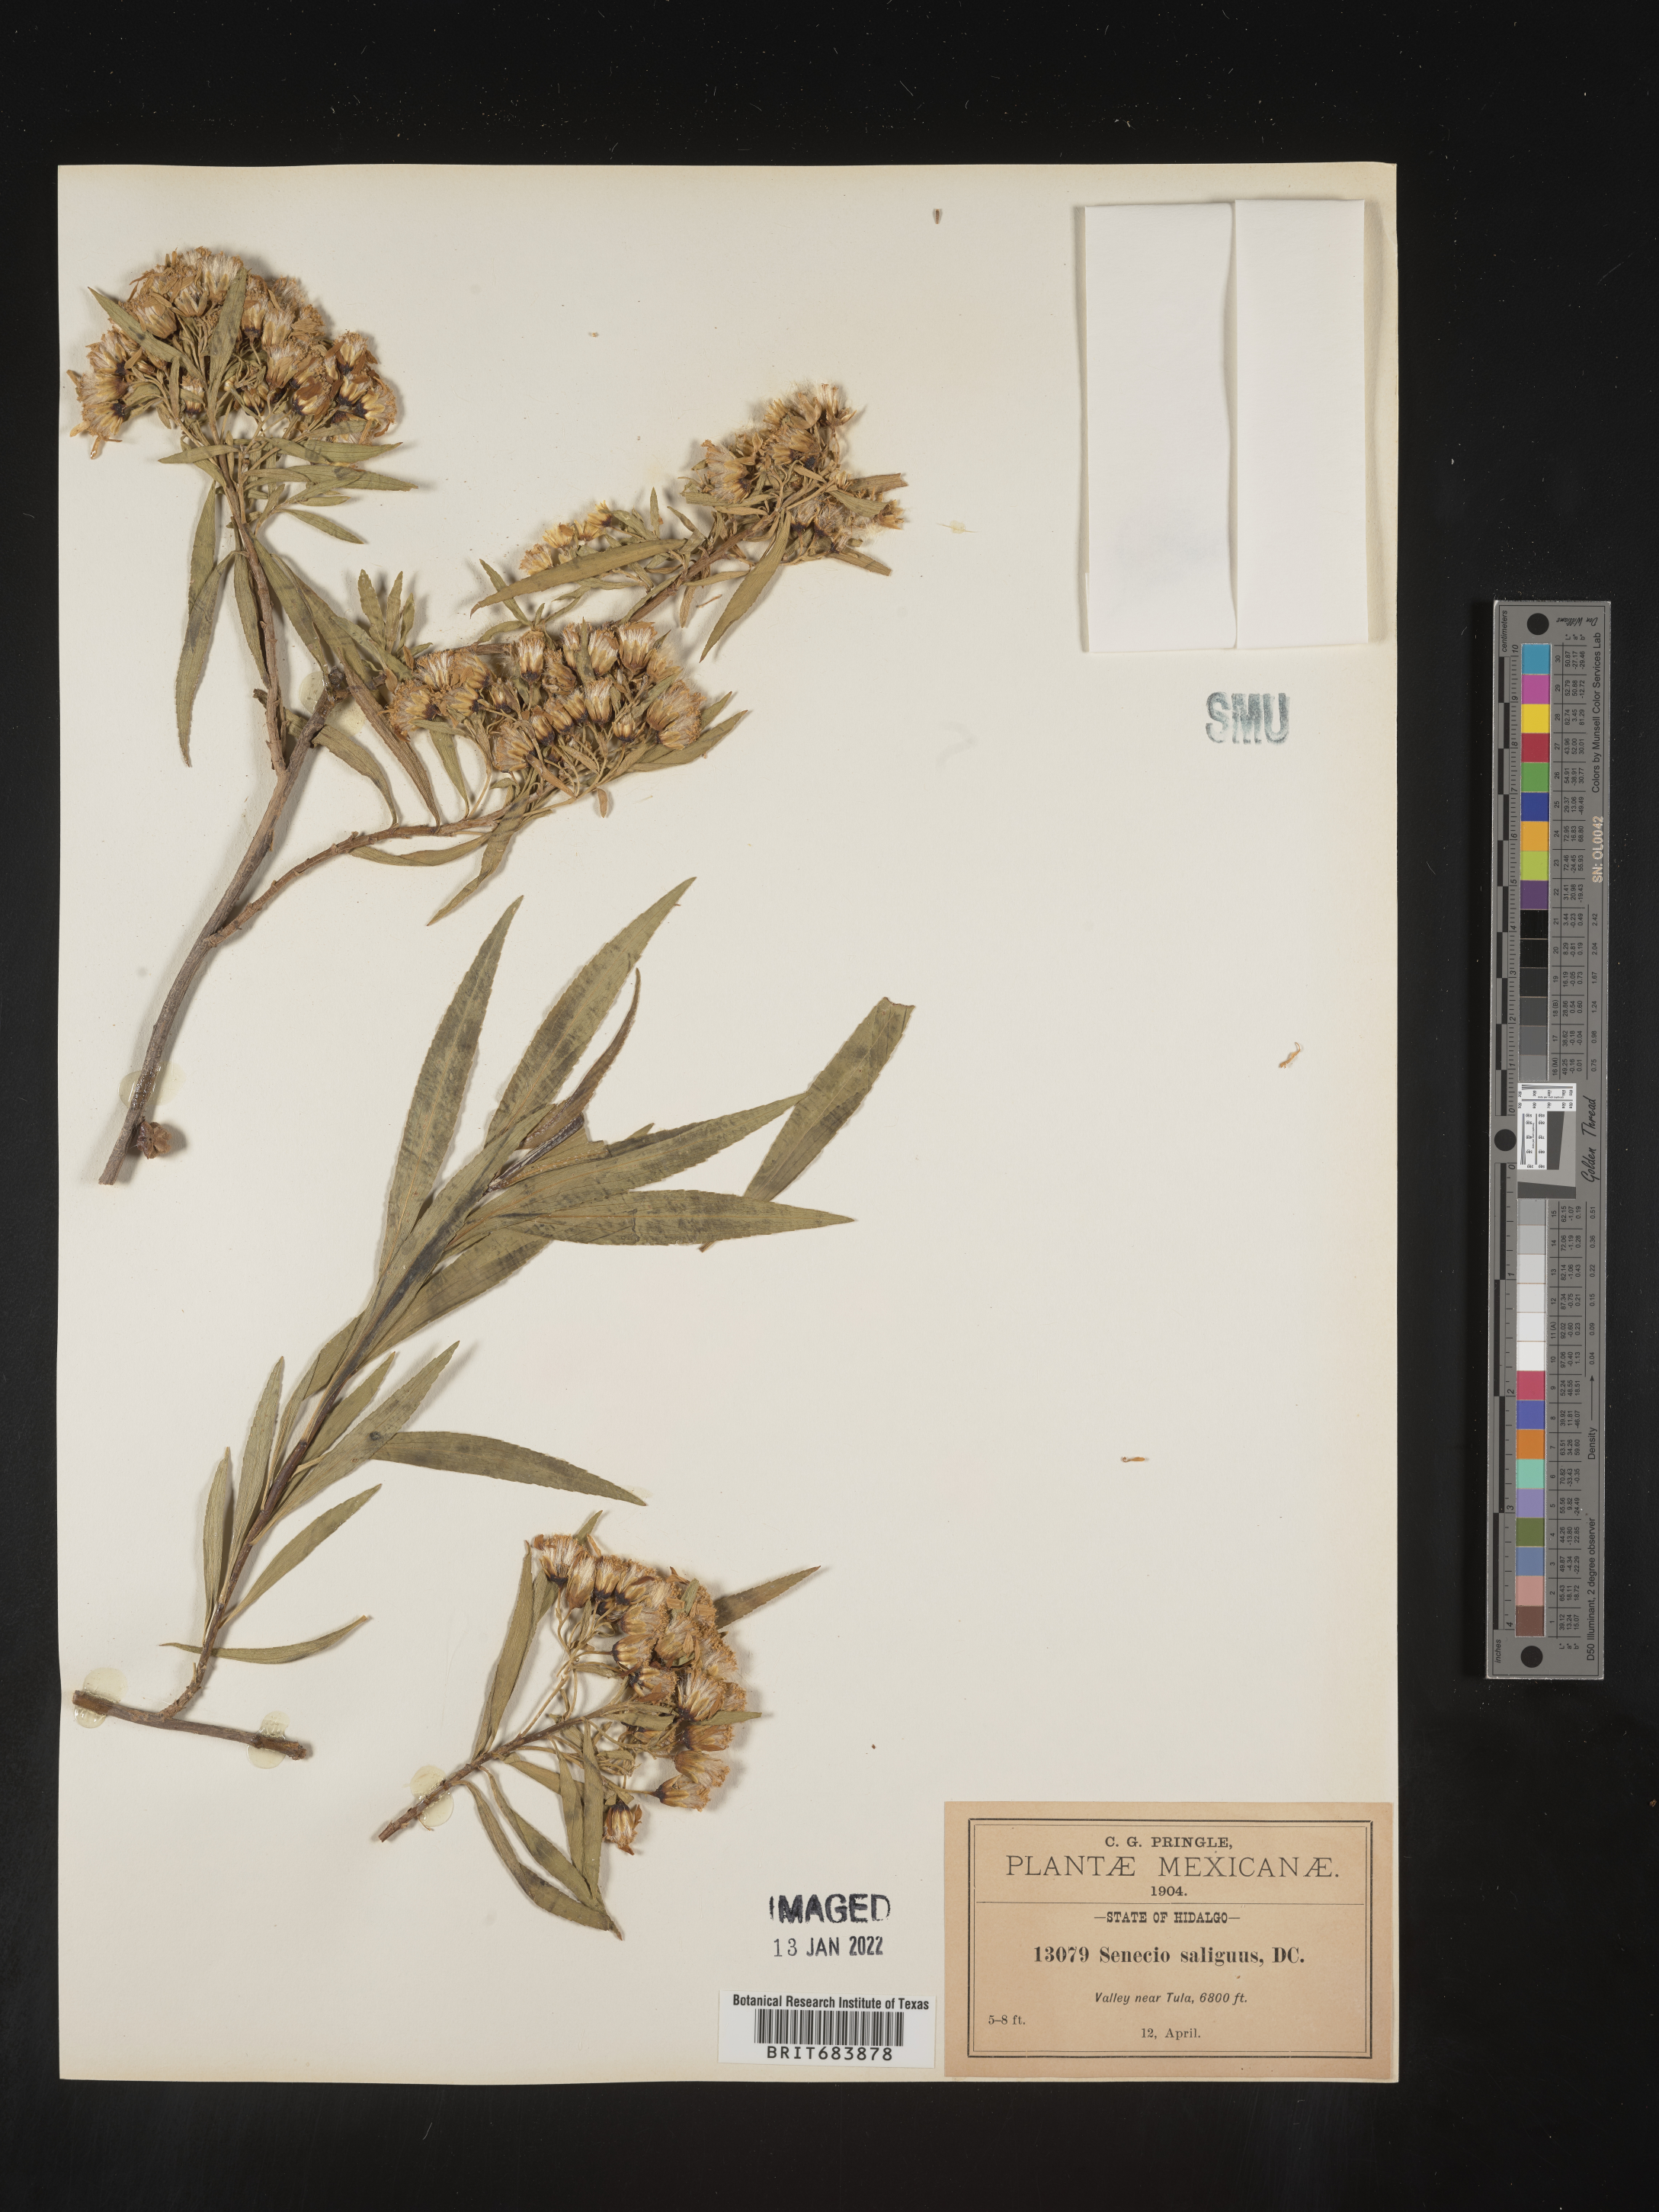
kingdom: Plantae
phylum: Tracheophyta
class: Magnoliopsida
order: Asterales
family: Asteraceae
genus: Barkleyanthus
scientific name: Barkleyanthus
